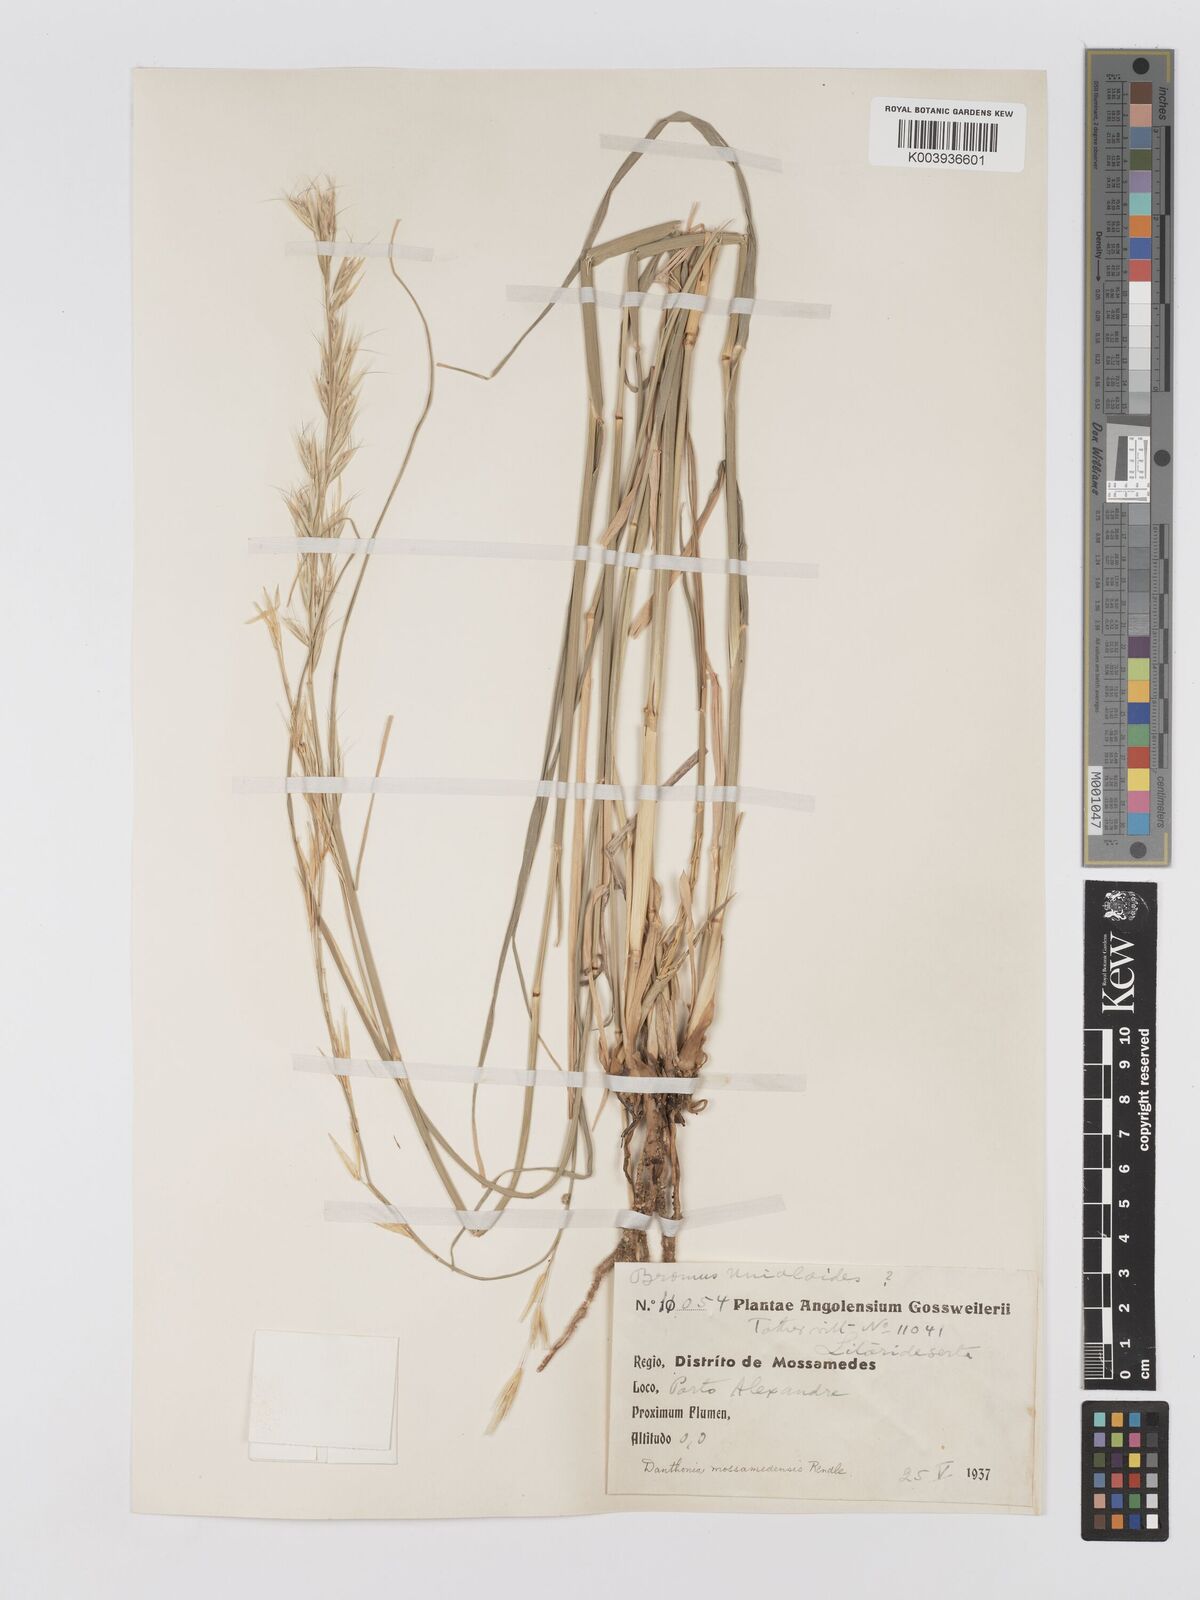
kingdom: Plantae
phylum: Tracheophyta
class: Liliopsida
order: Poales
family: Poaceae
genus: Centropodia
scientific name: Centropodia mossamedensis
